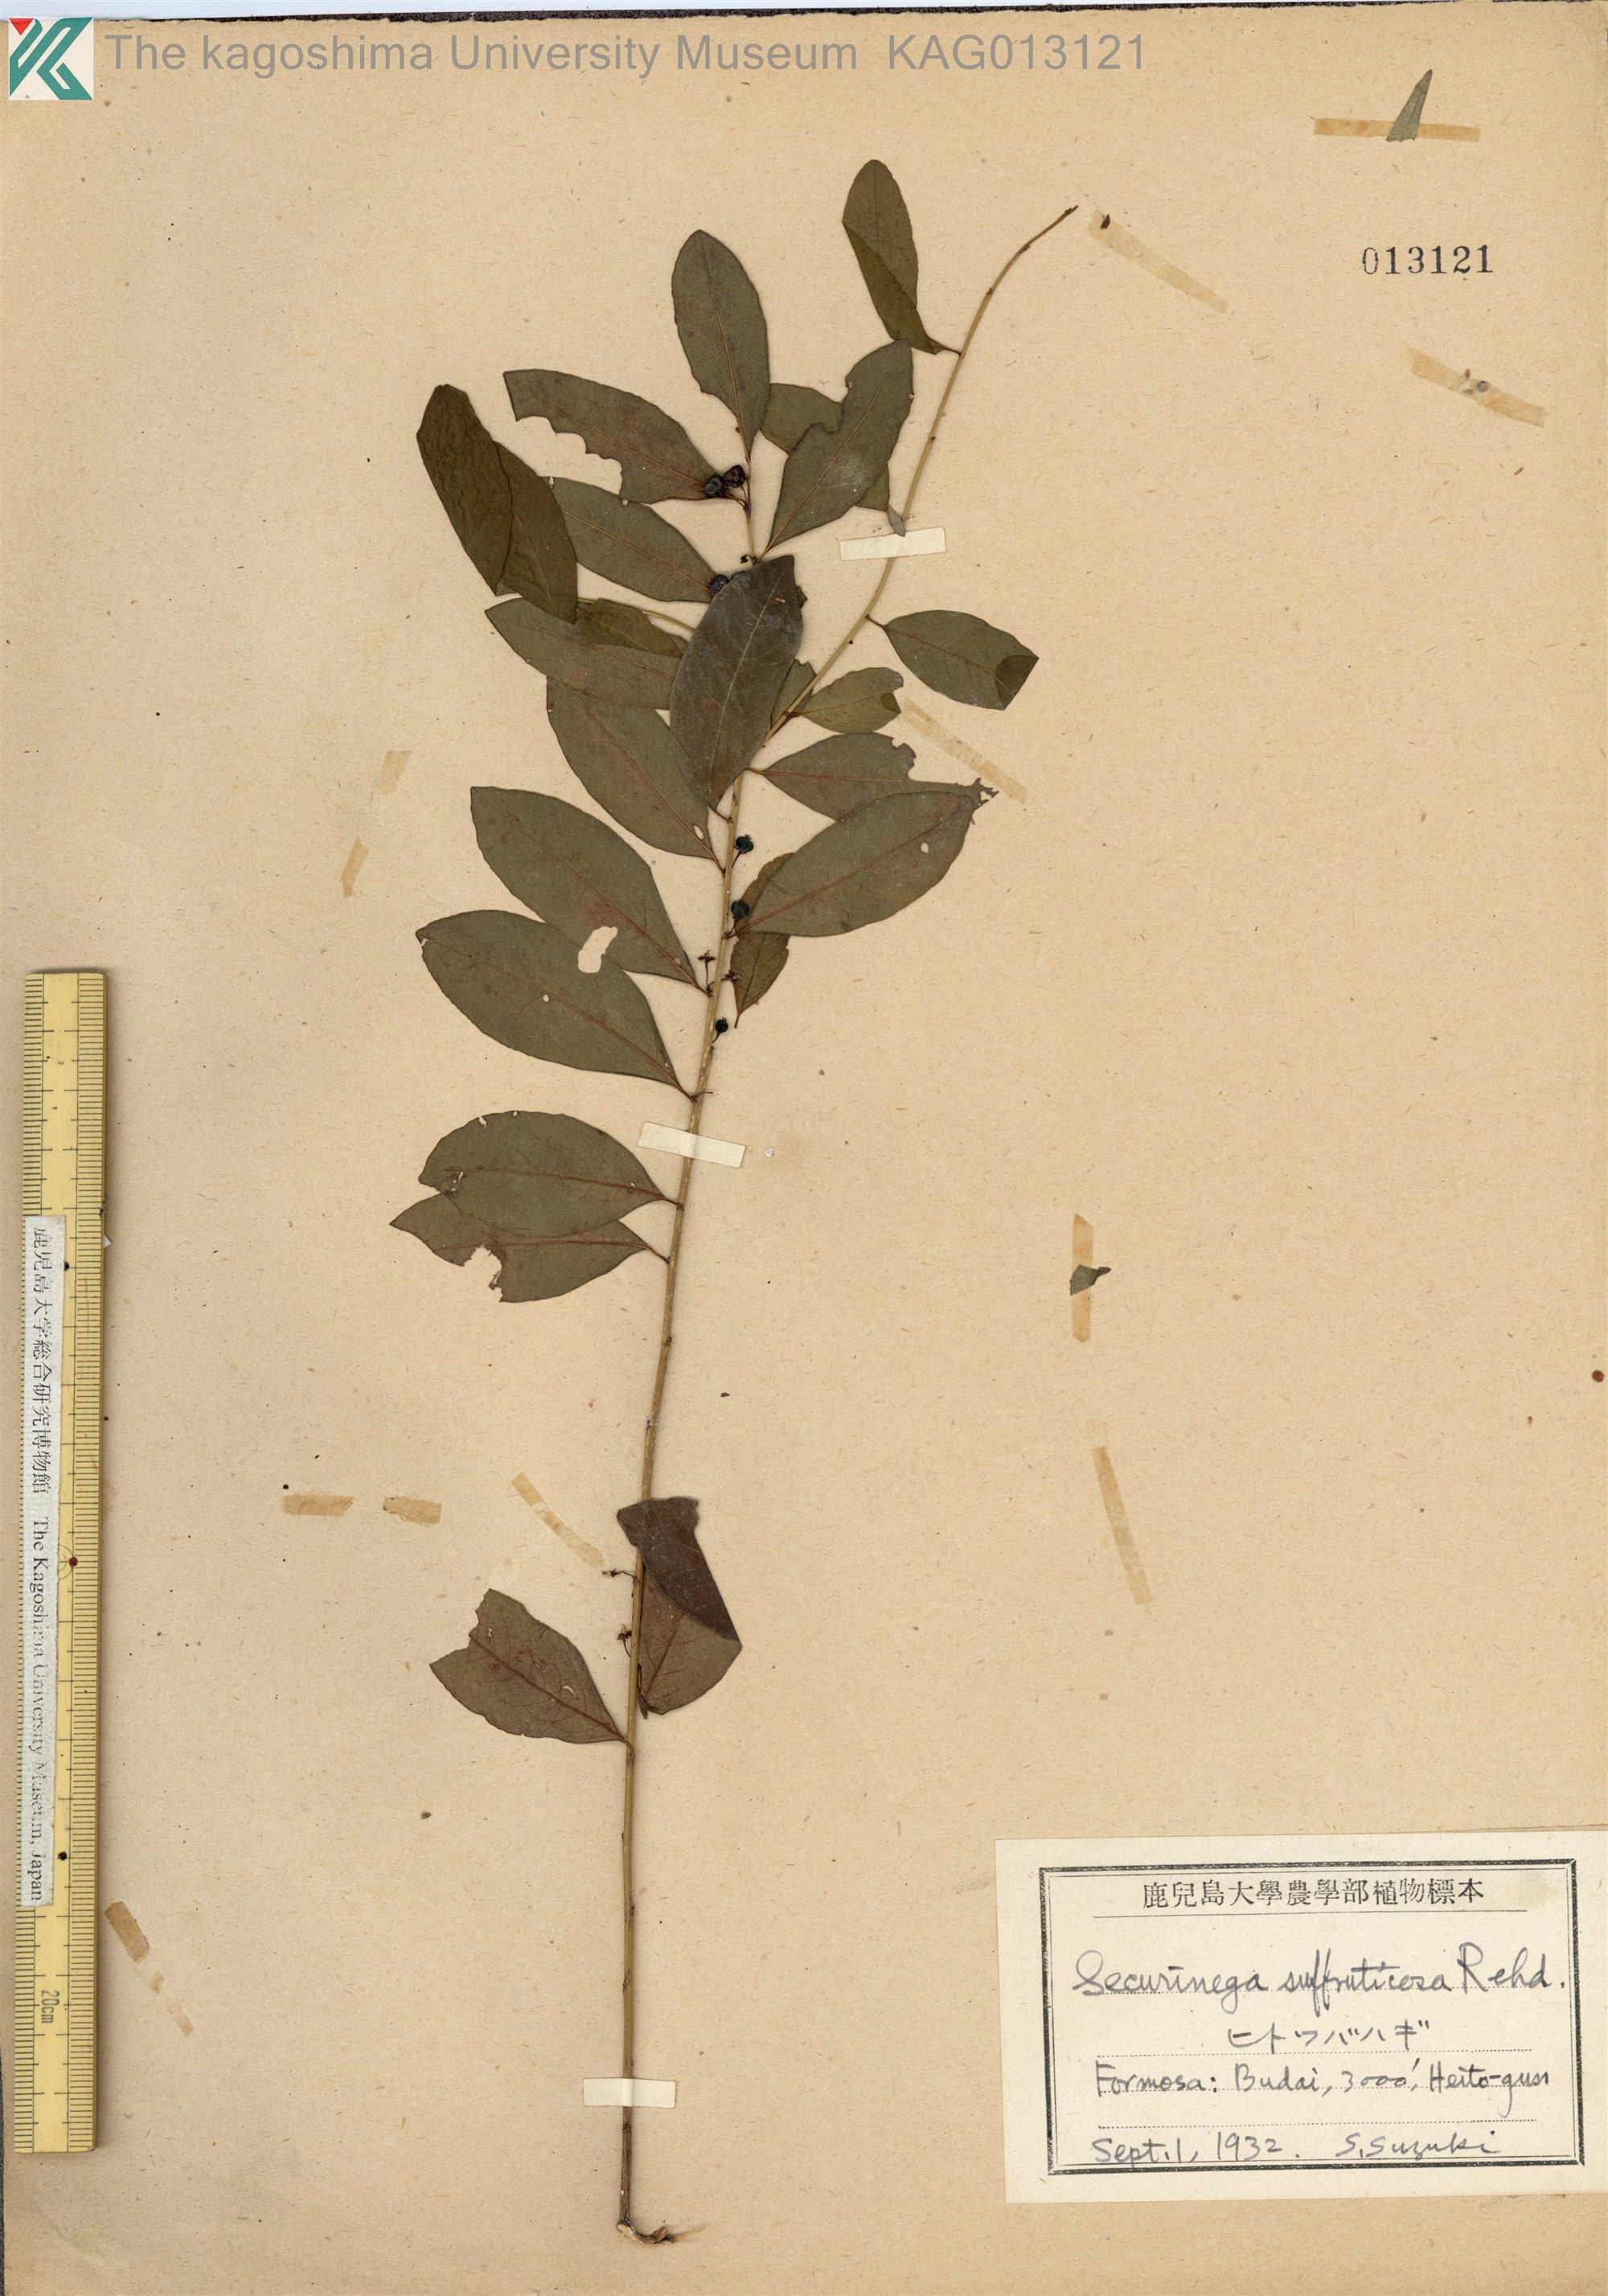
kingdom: Plantae
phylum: Tracheophyta
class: Magnoliopsida
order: Malpighiales
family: Phyllanthaceae
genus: Flueggea
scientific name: Flueggea suffruticosa
